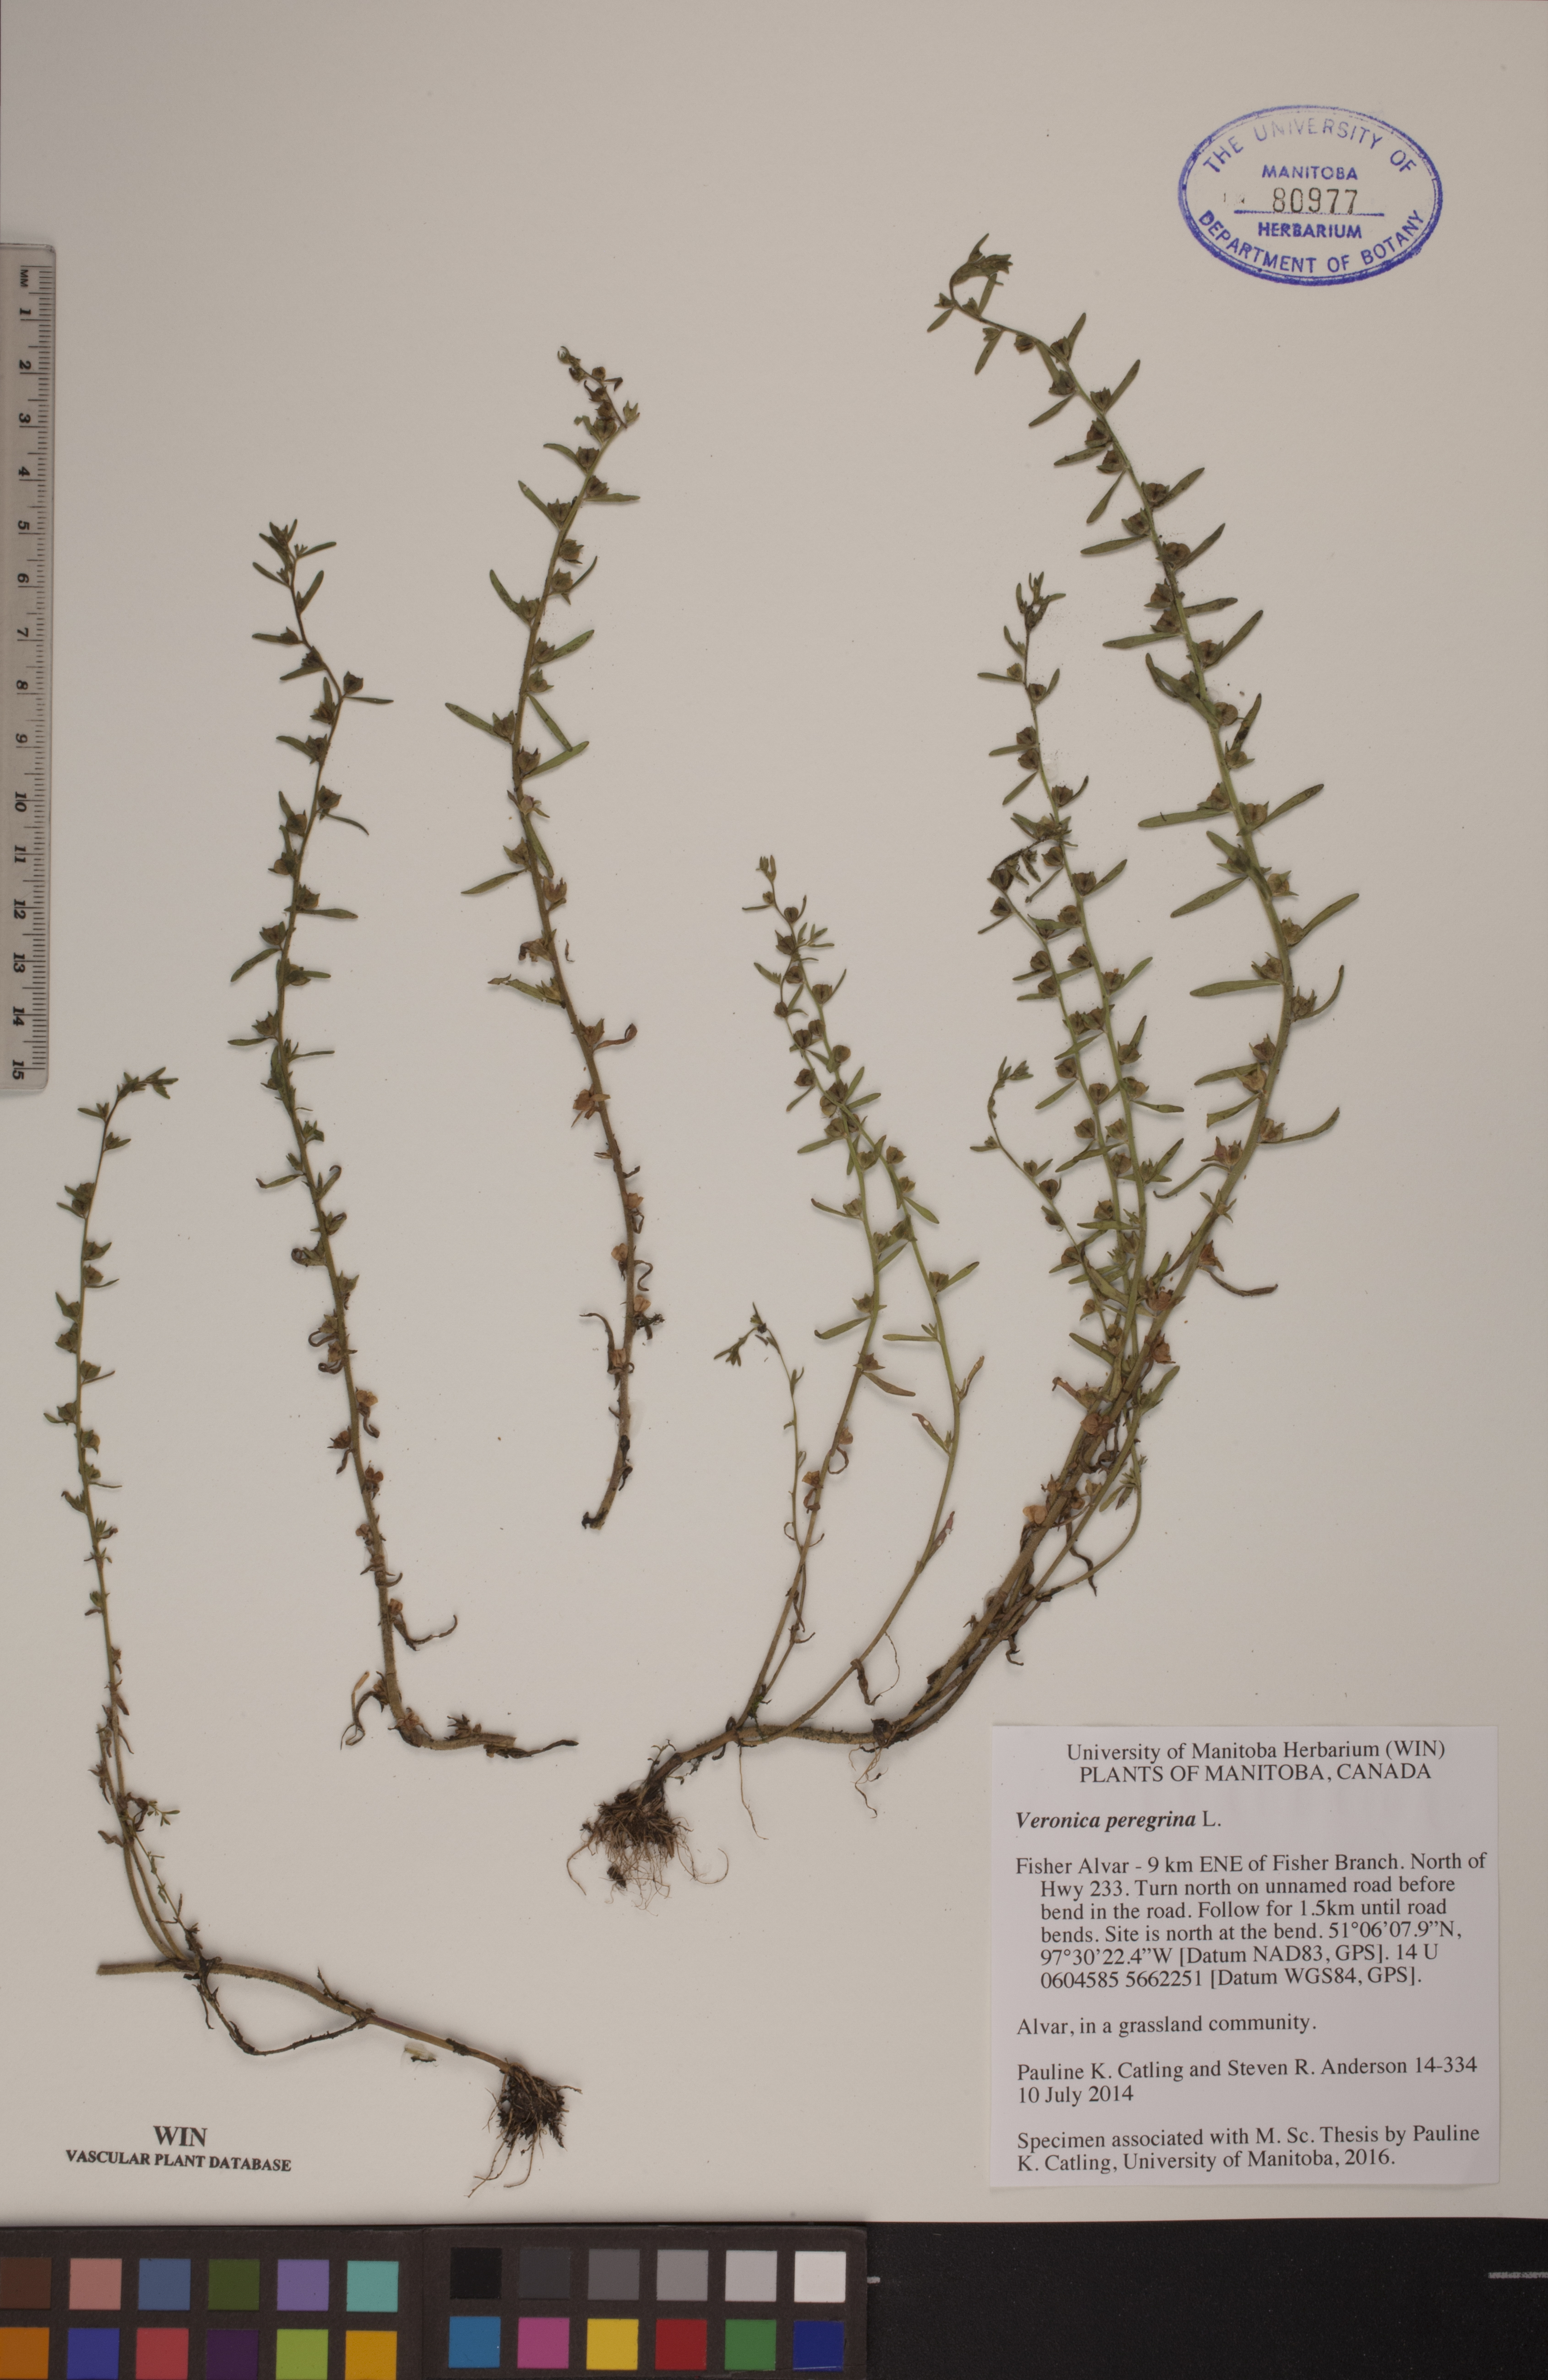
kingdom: Plantae
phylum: Tracheophyta
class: Magnoliopsida
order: Lamiales
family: Plantaginaceae
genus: Veronica
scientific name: Veronica peregrina
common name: Neckweed
